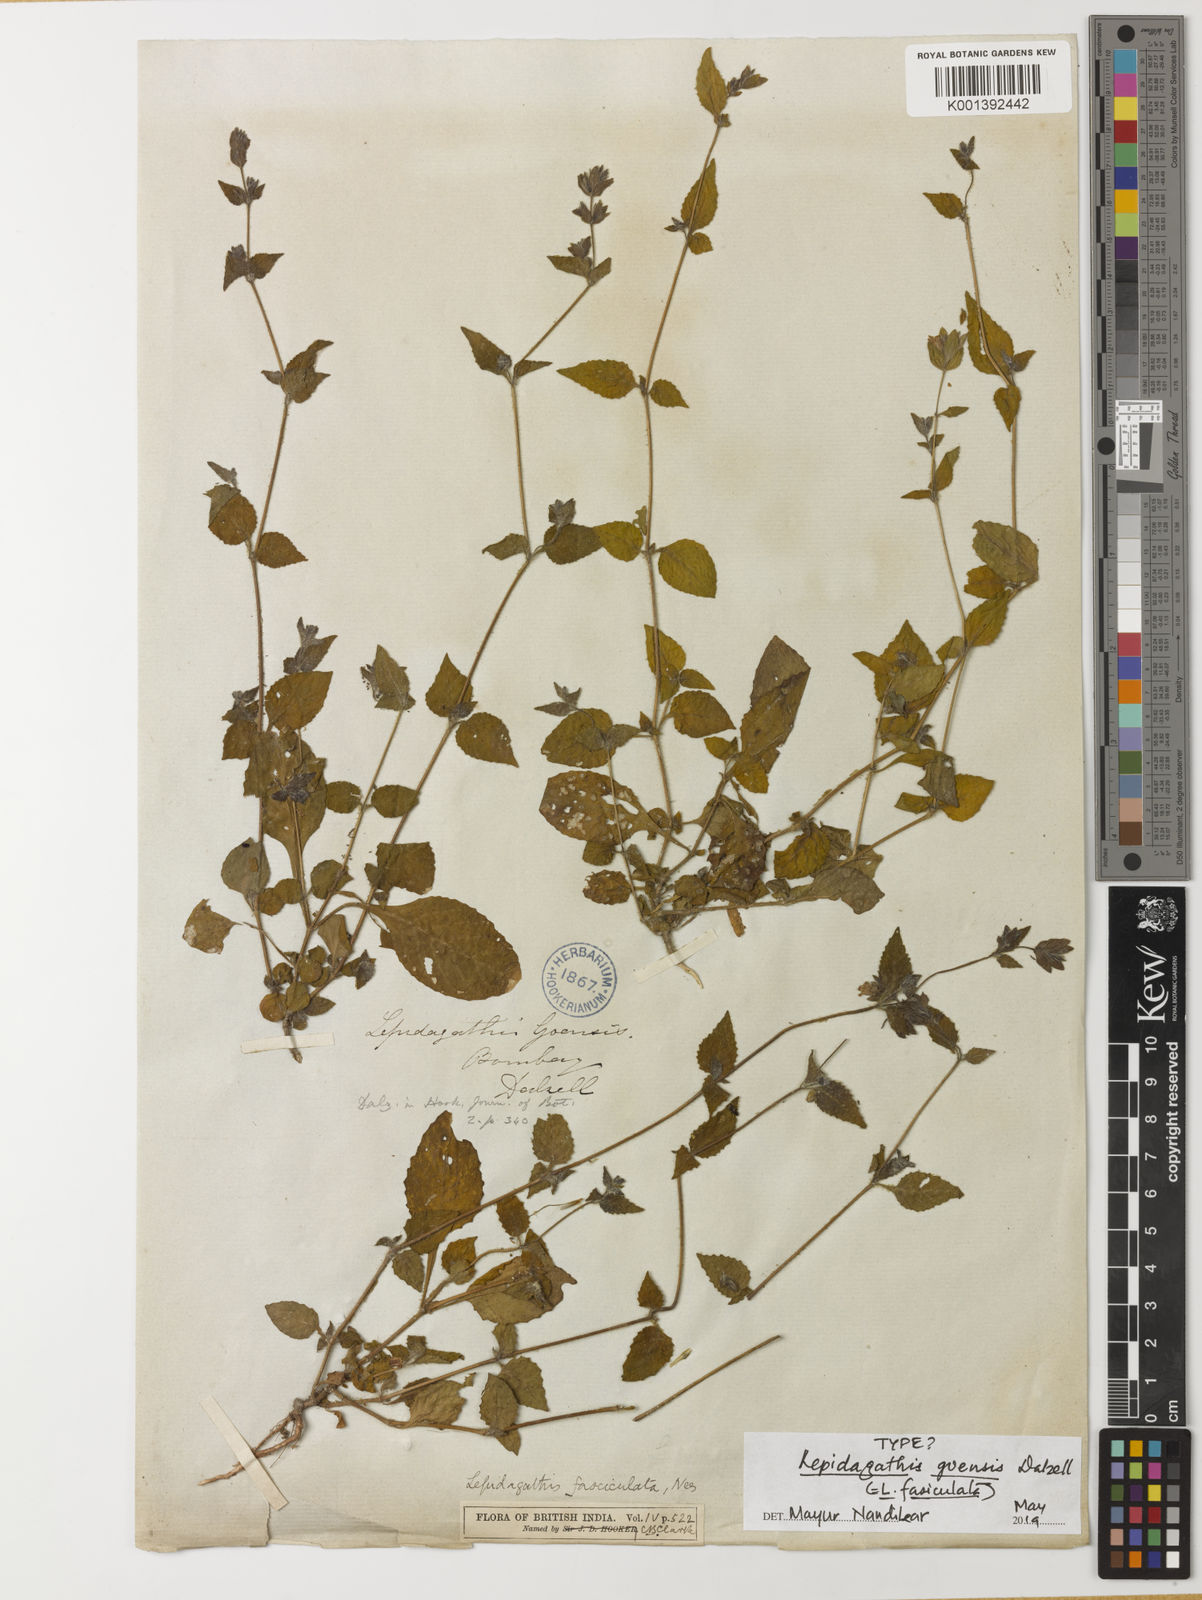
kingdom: Plantae
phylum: Tracheophyta
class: Magnoliopsida
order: Lamiales
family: Acanthaceae
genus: Lepidagathis
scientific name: Lepidagathis fasciculata
